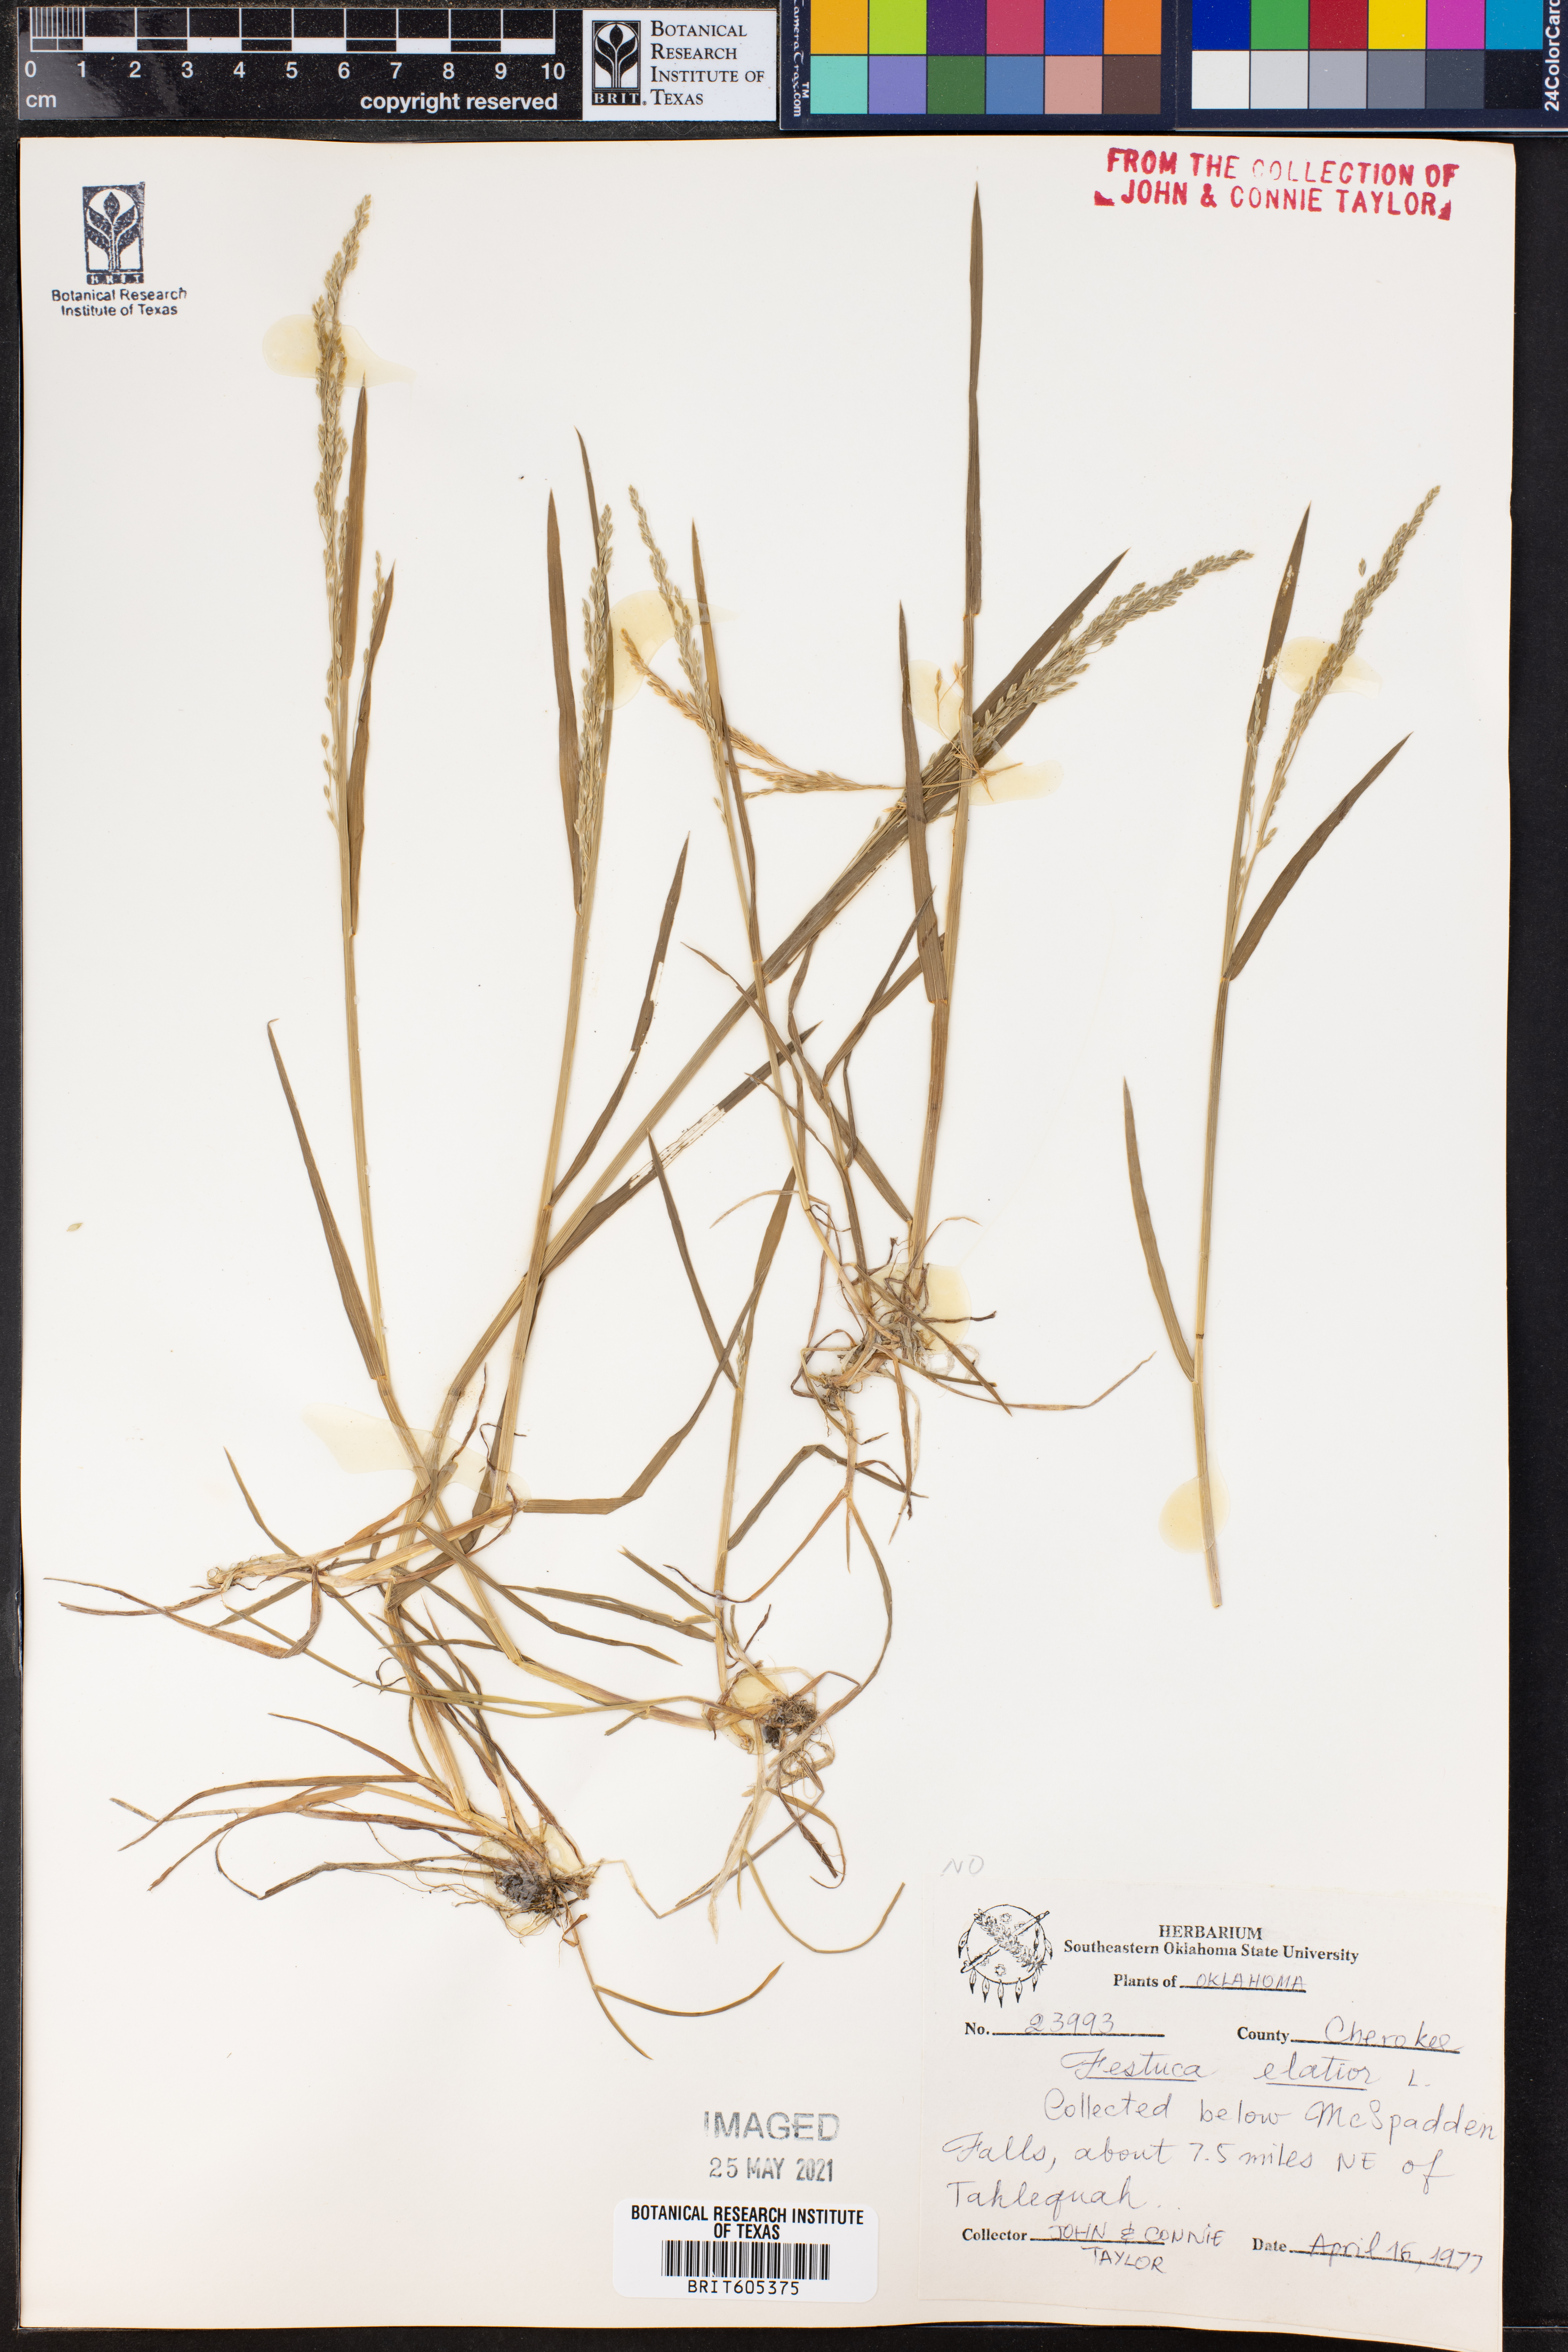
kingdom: Plantae
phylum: Tracheophyta
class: Liliopsida
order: Poales
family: Poaceae
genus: Lolium
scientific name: Lolium arundinaceum
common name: Reed fescue
